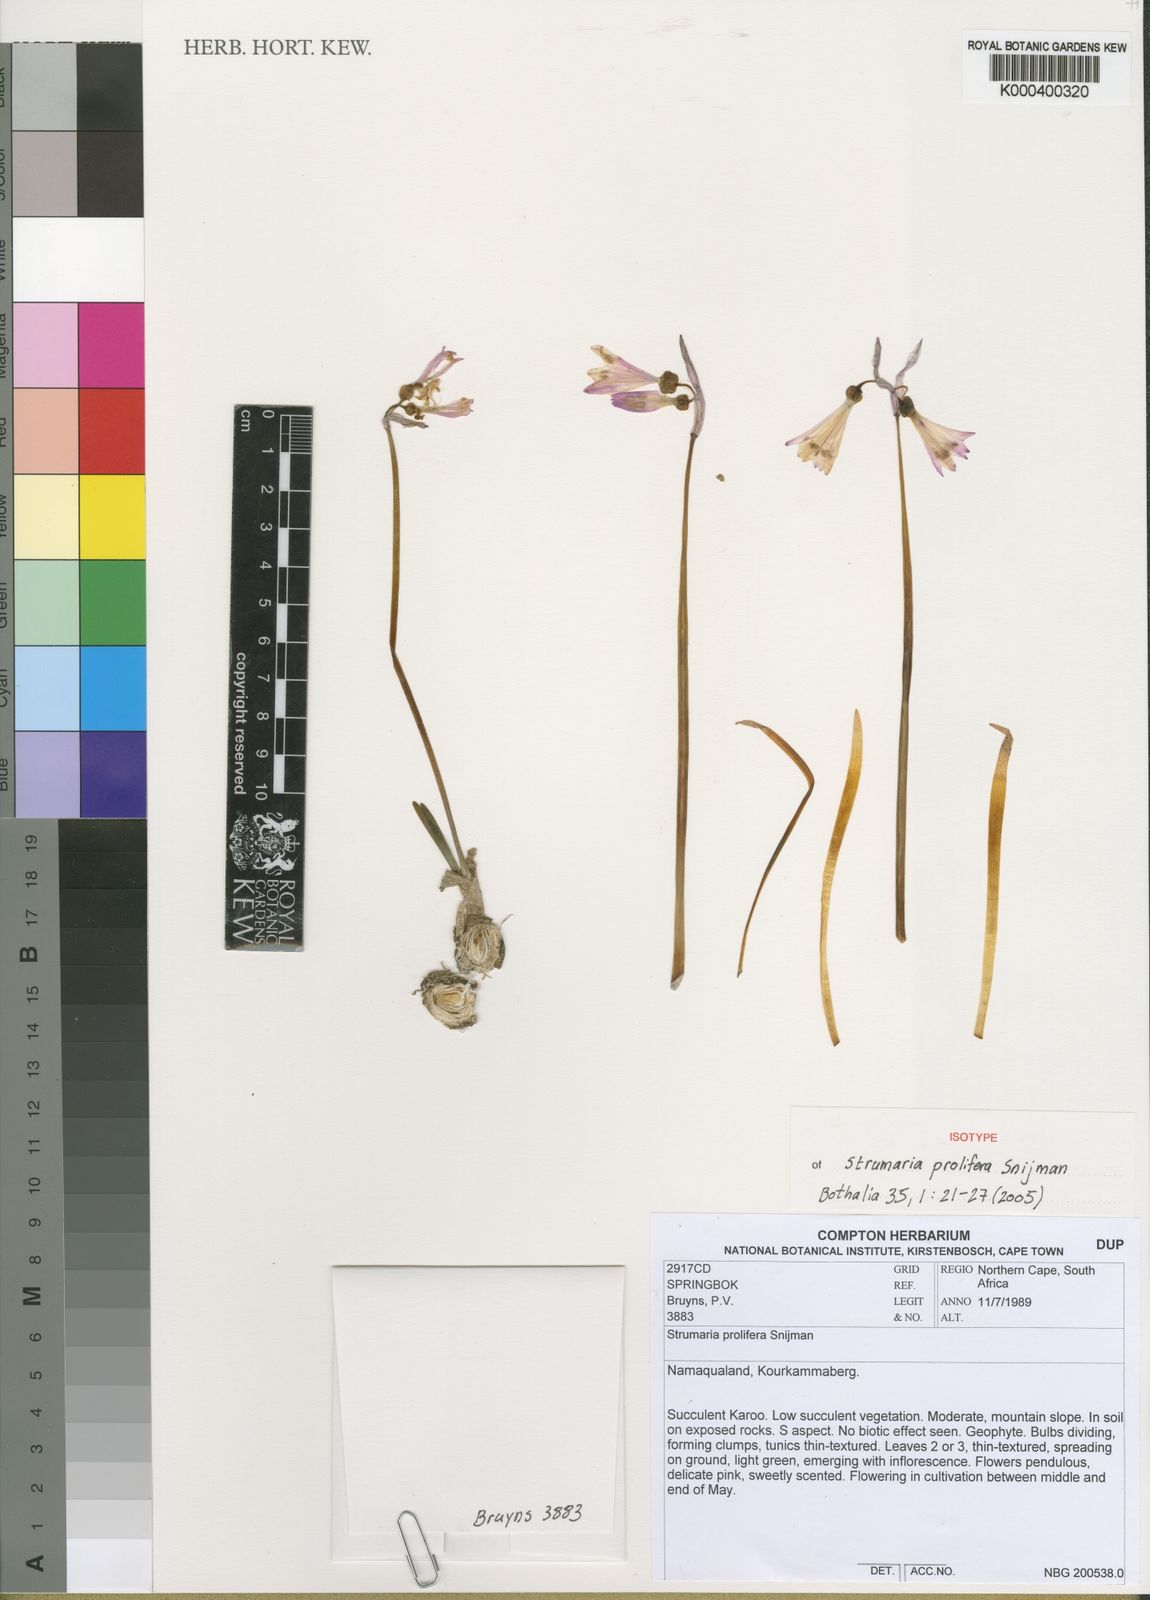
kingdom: Plantae
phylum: Tracheophyta
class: Liliopsida
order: Asparagales
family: Amaryllidaceae
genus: Strumaria
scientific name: Strumaria prolifera
